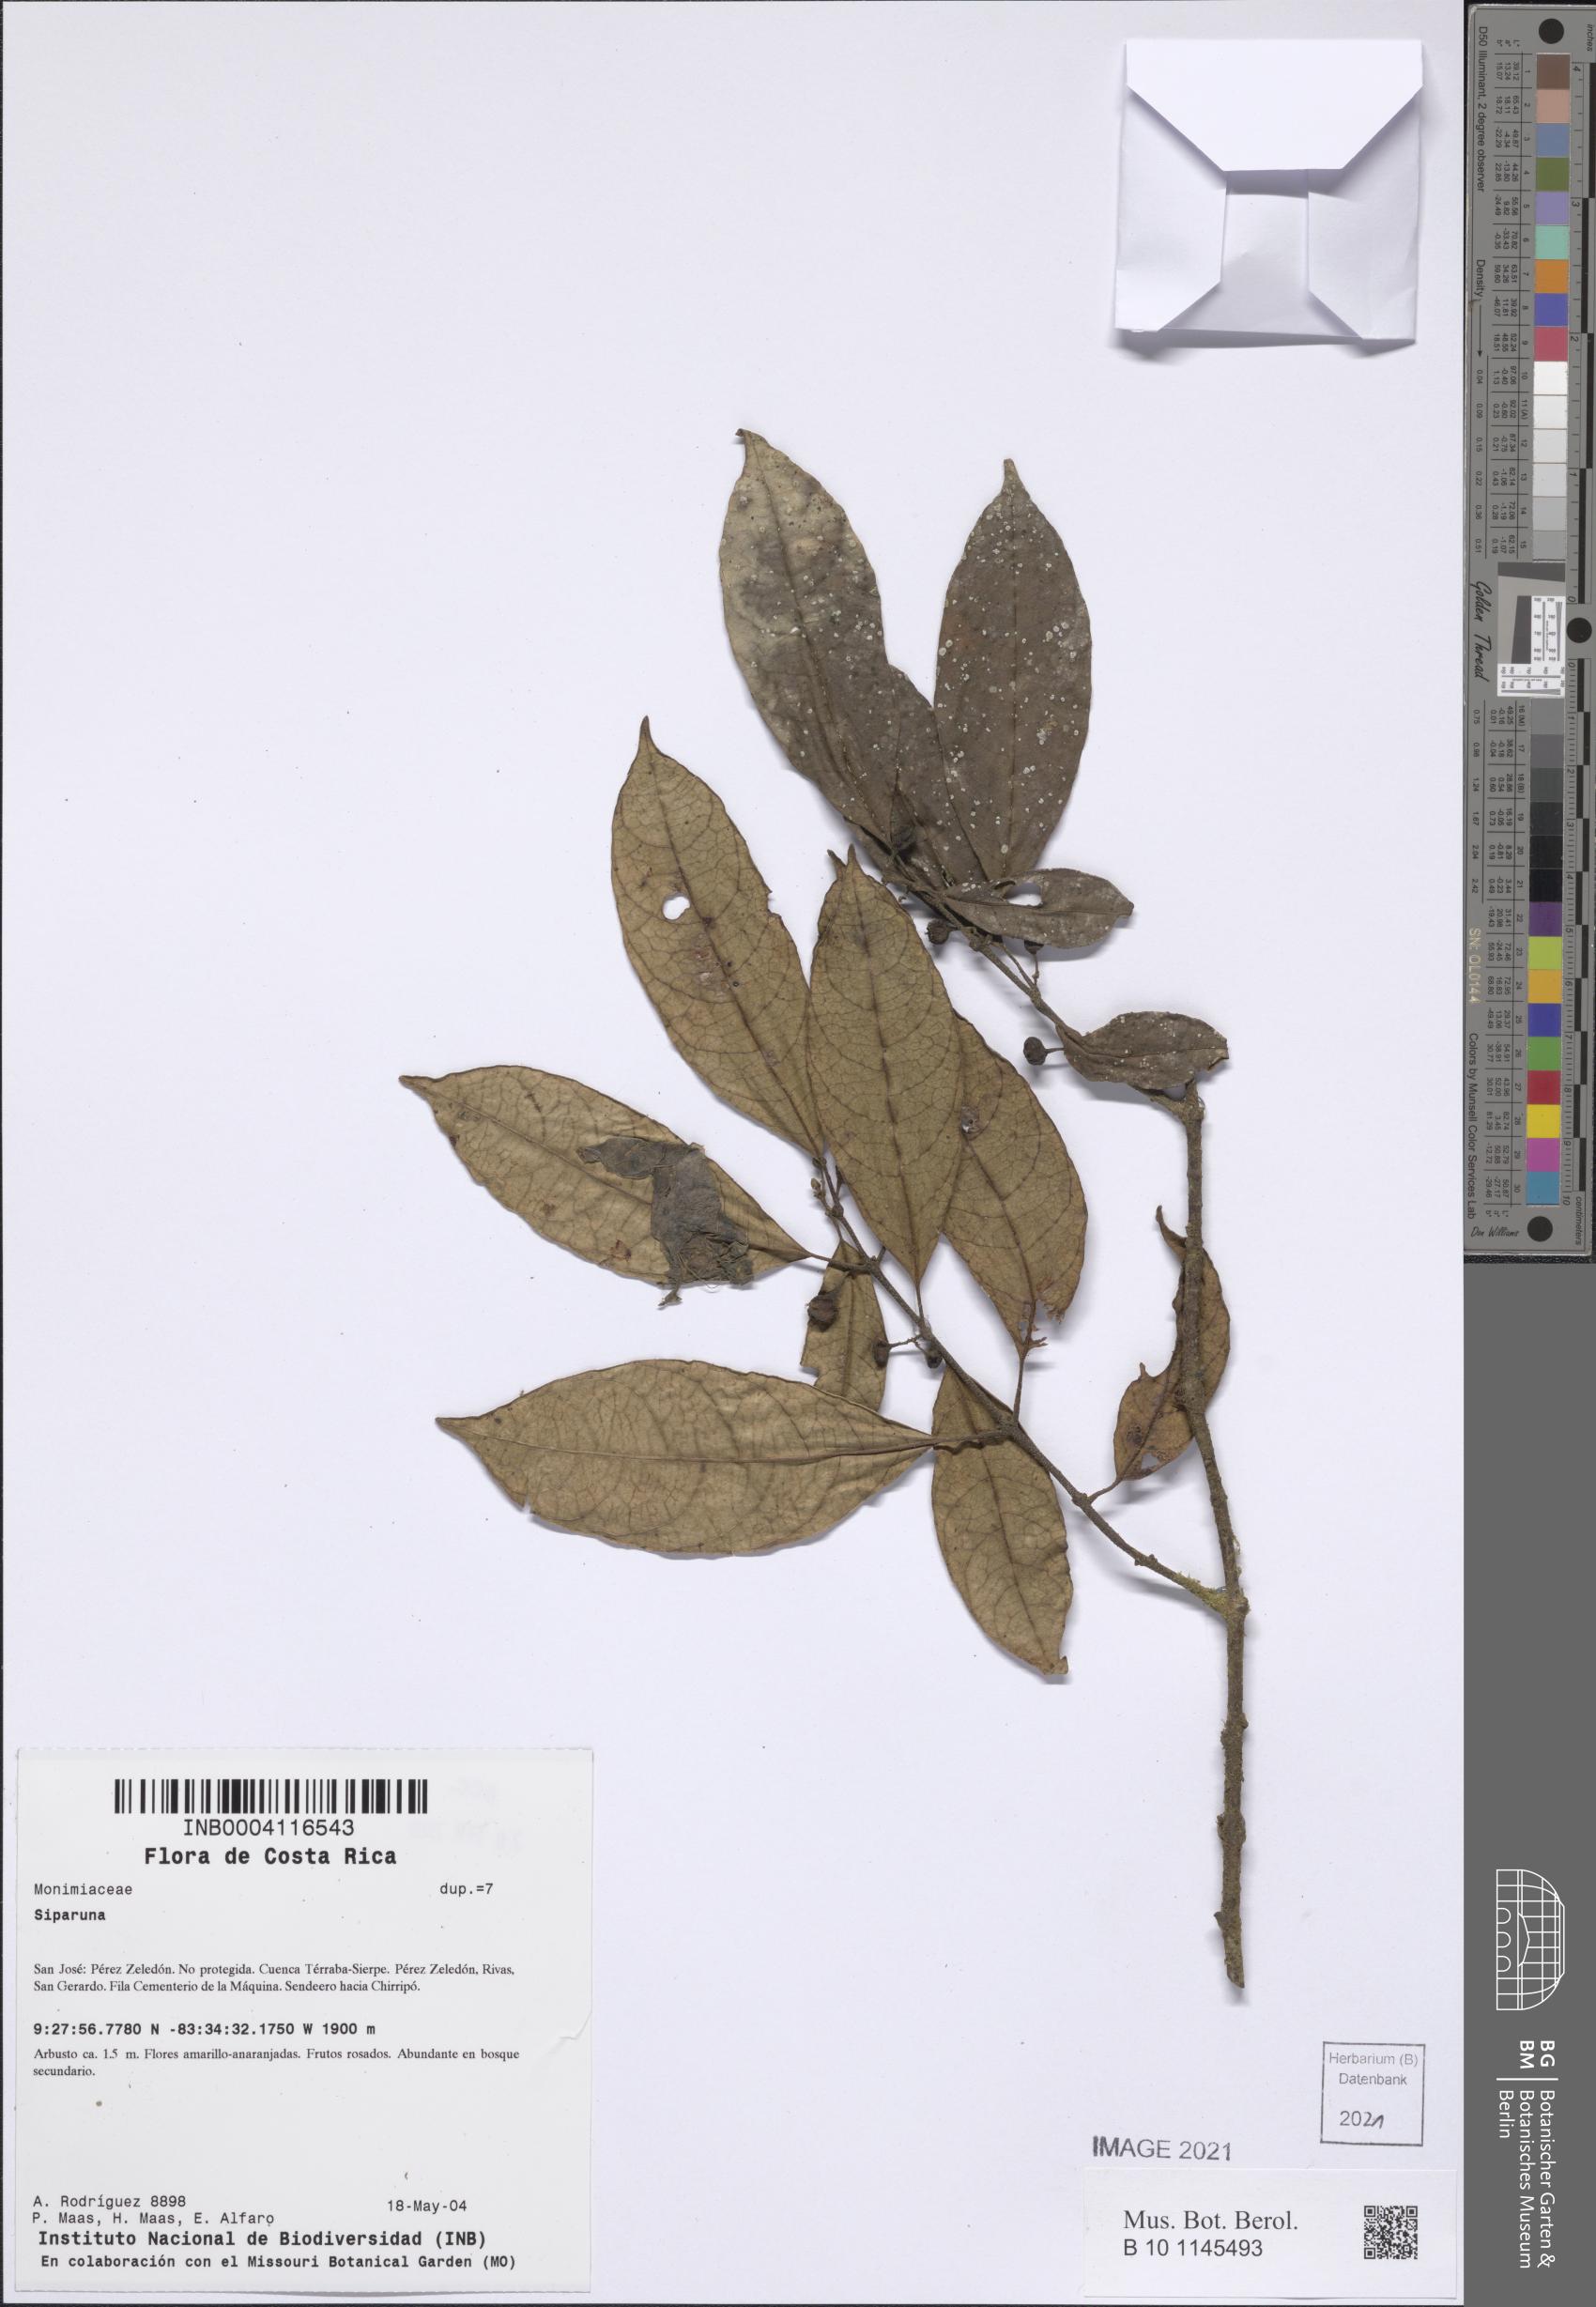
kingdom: Plantae
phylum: Tracheophyta
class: Magnoliopsida
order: Laurales
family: Siparunaceae
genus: Siparuna
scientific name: Siparuna
